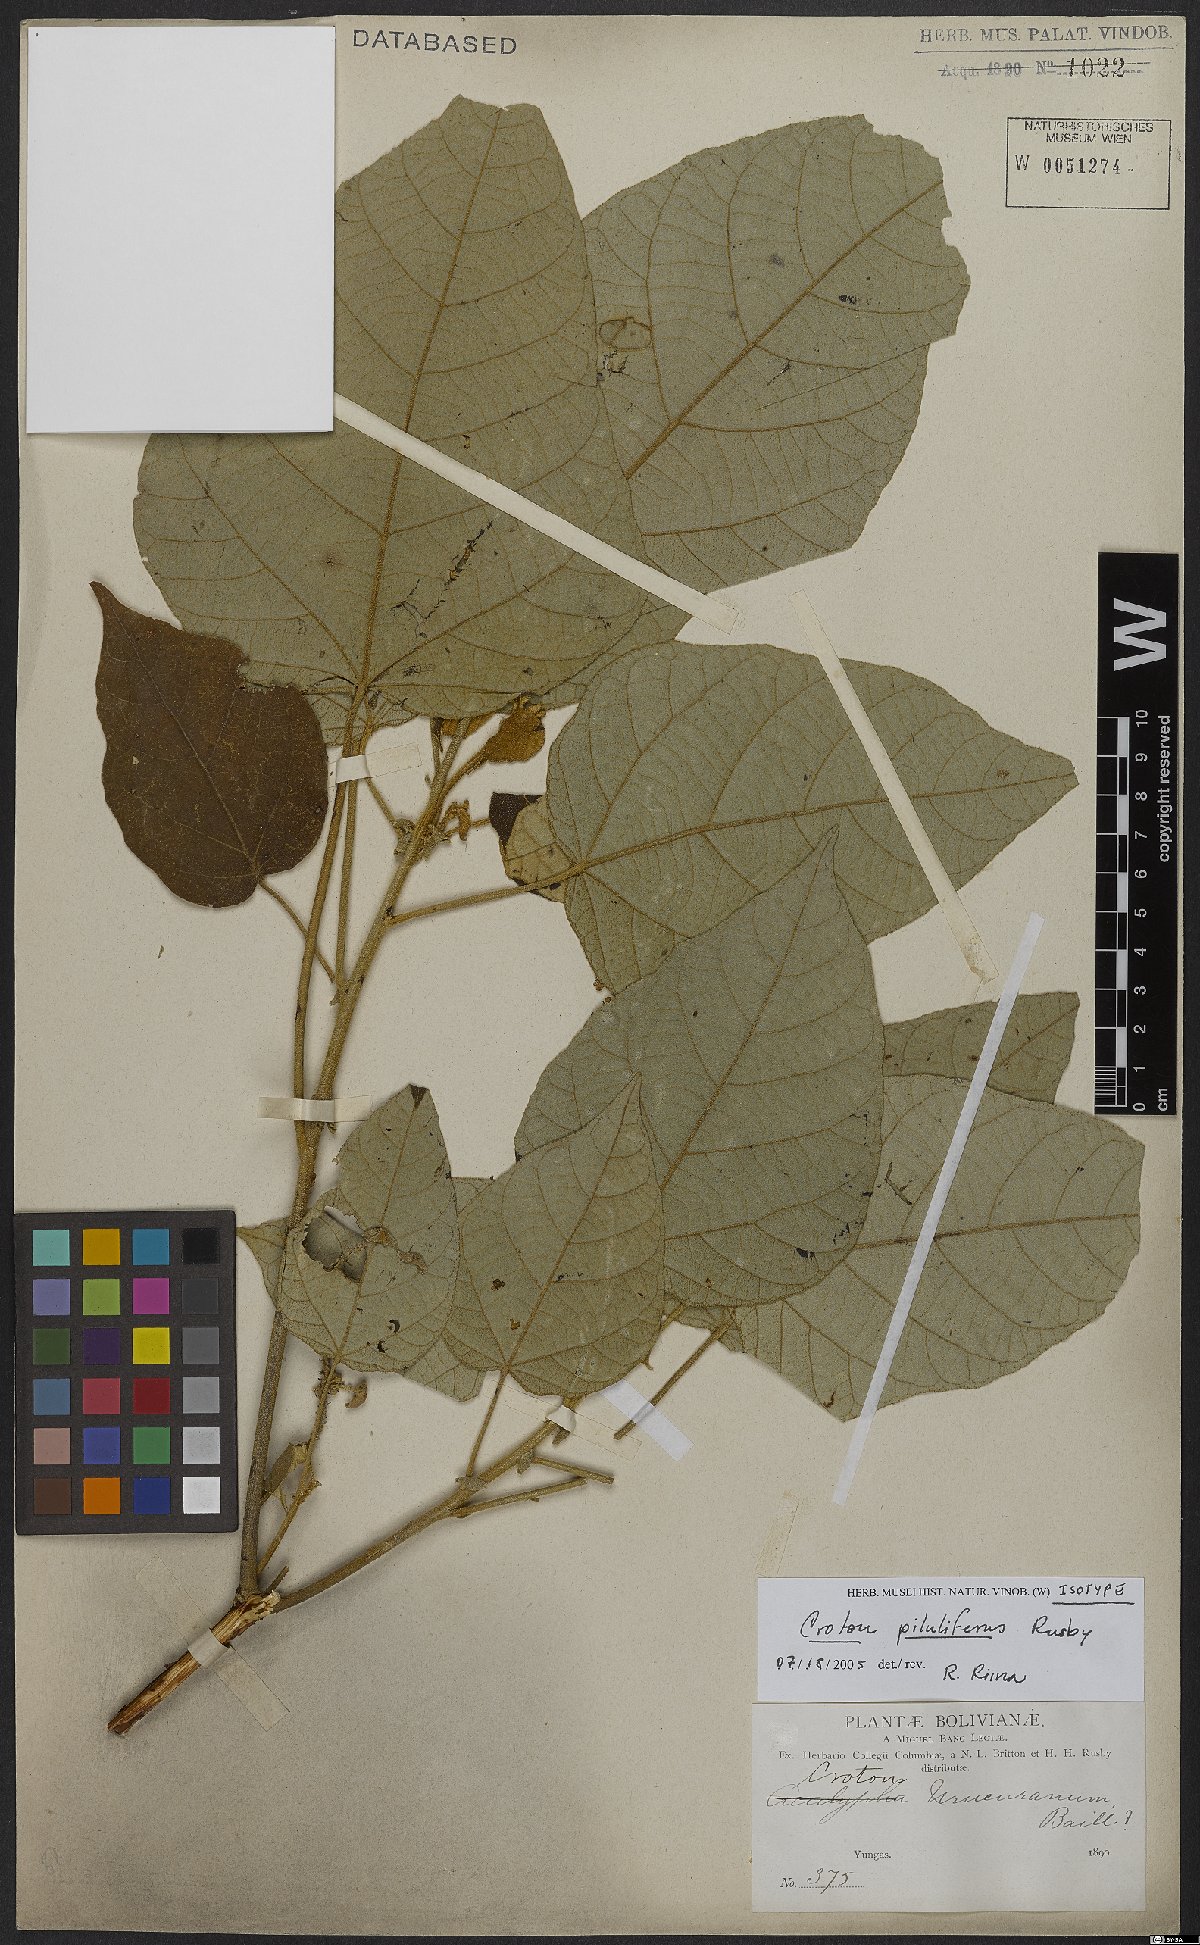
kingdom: Plantae
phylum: Tracheophyta
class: Magnoliopsida
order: Malpighiales
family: Euphorbiaceae
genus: Croton
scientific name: Croton piluliferus
